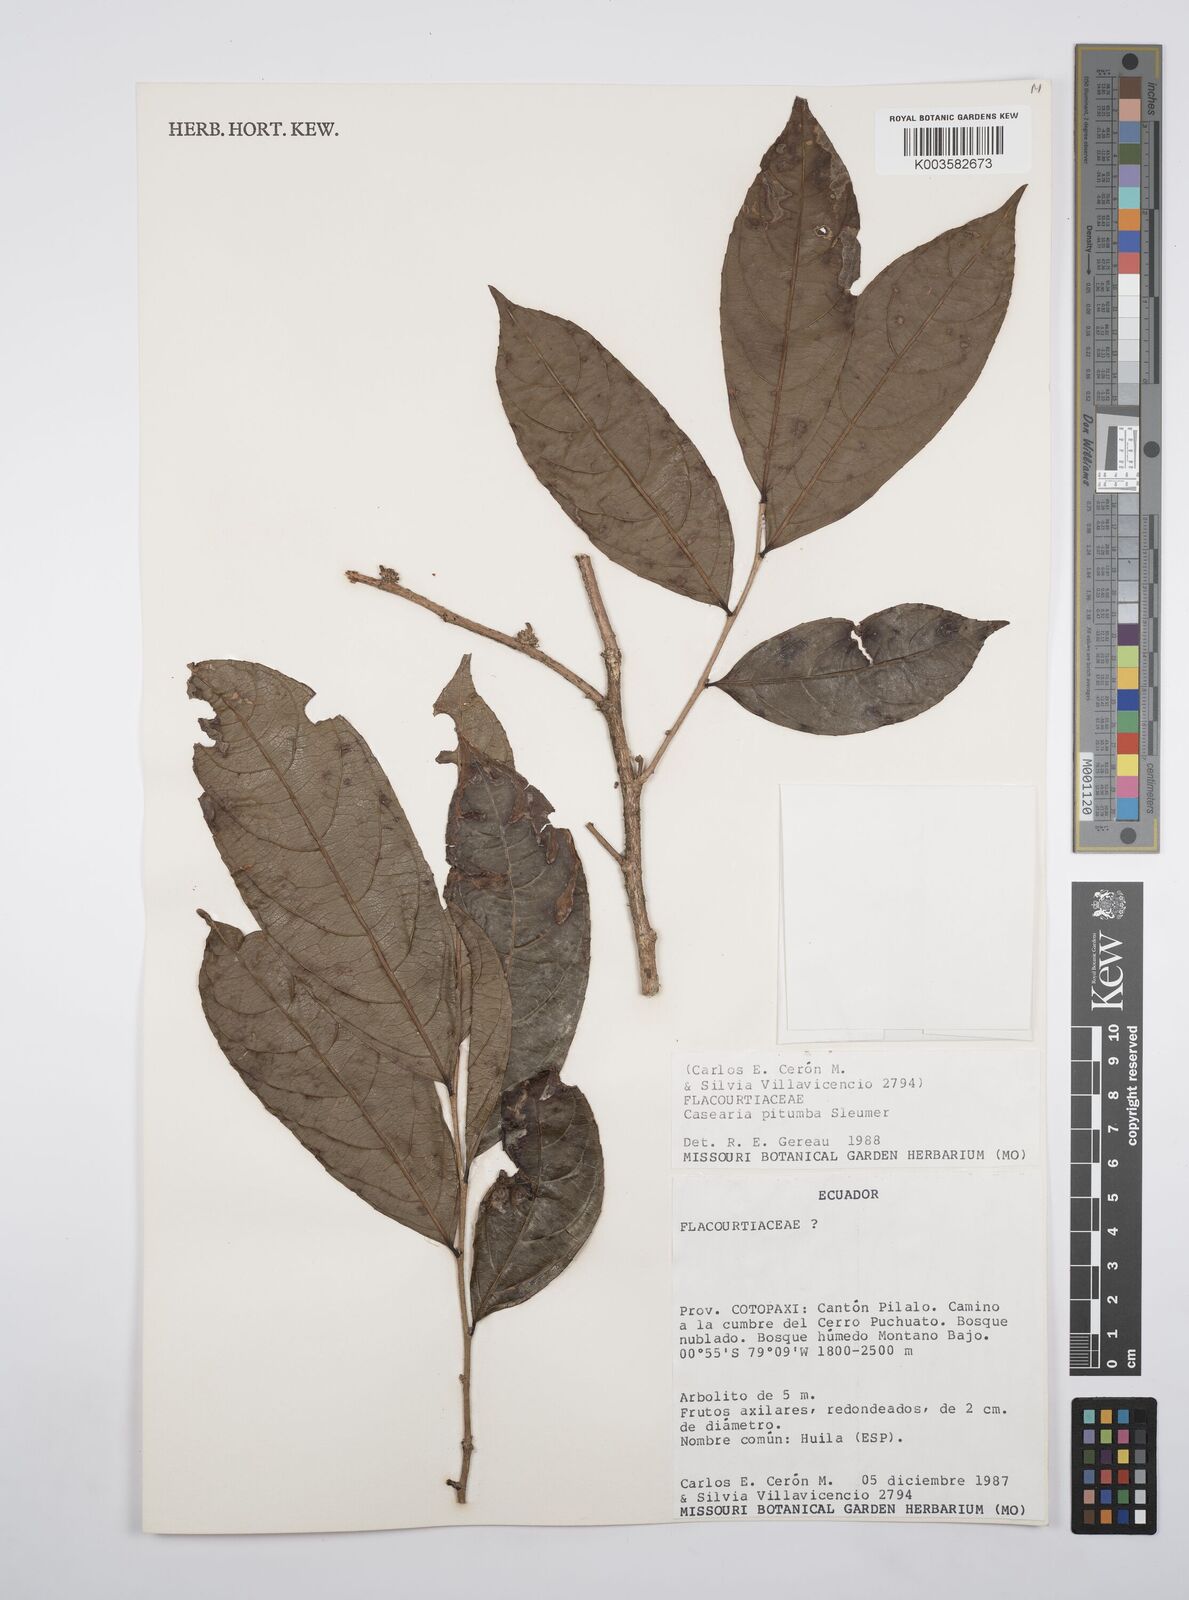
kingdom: Plantae
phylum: Tracheophyta
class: Magnoliopsida
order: Malpighiales
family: Salicaceae
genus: Casearia
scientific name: Casearia pitumba
